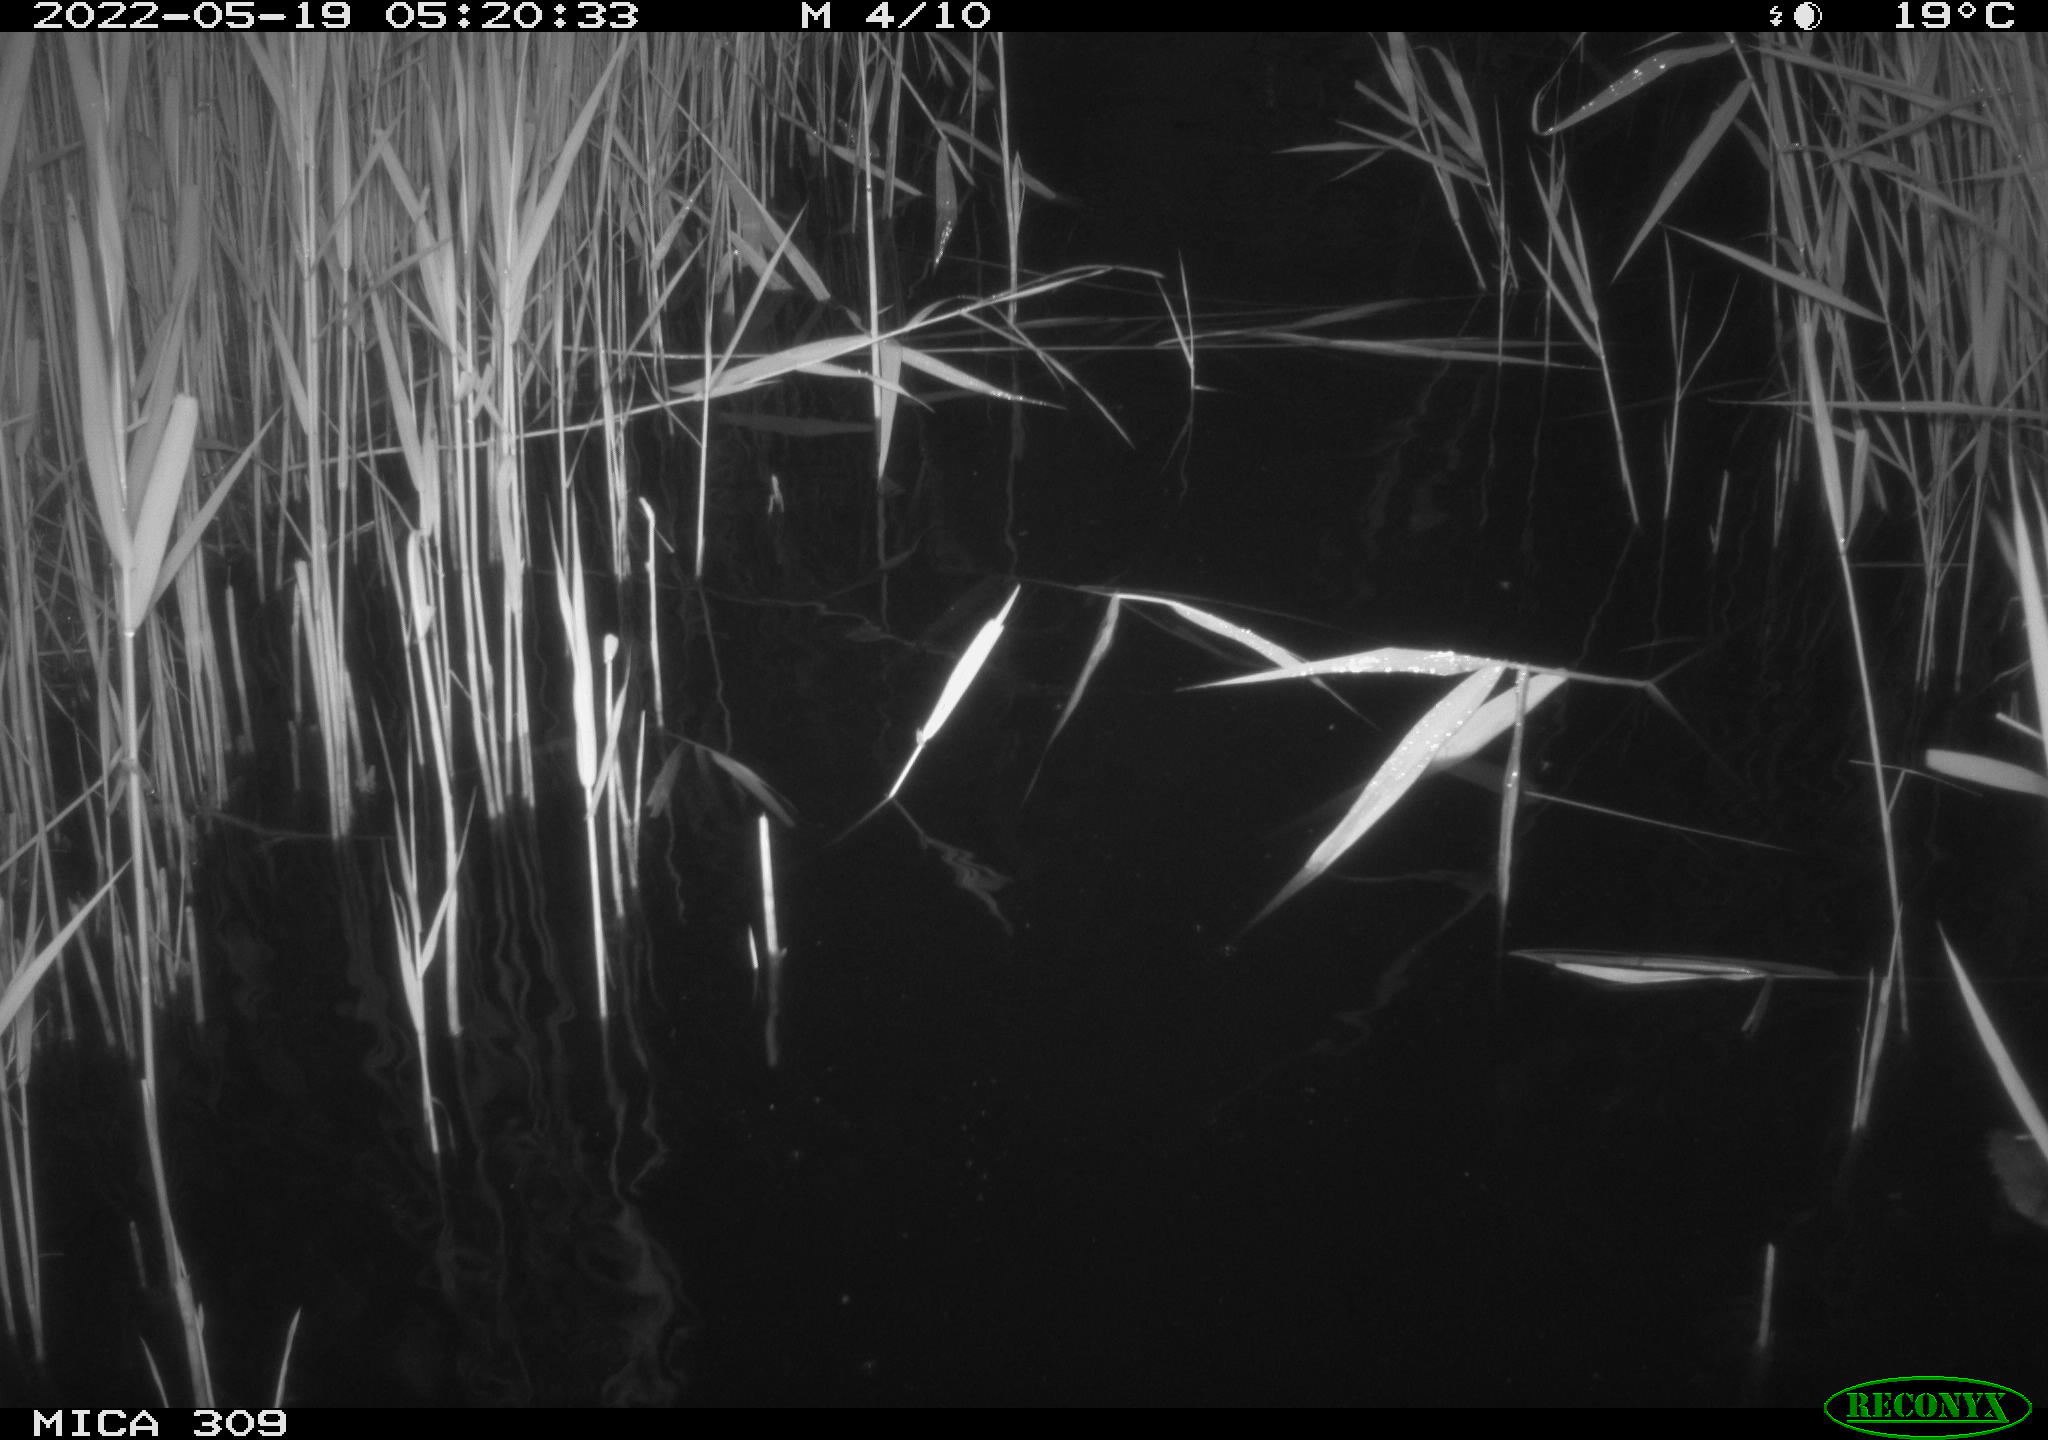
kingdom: Animalia
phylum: Chordata
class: Aves
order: Anseriformes
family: Anatidae
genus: Anas
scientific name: Anas platyrhynchos
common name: Mallard
